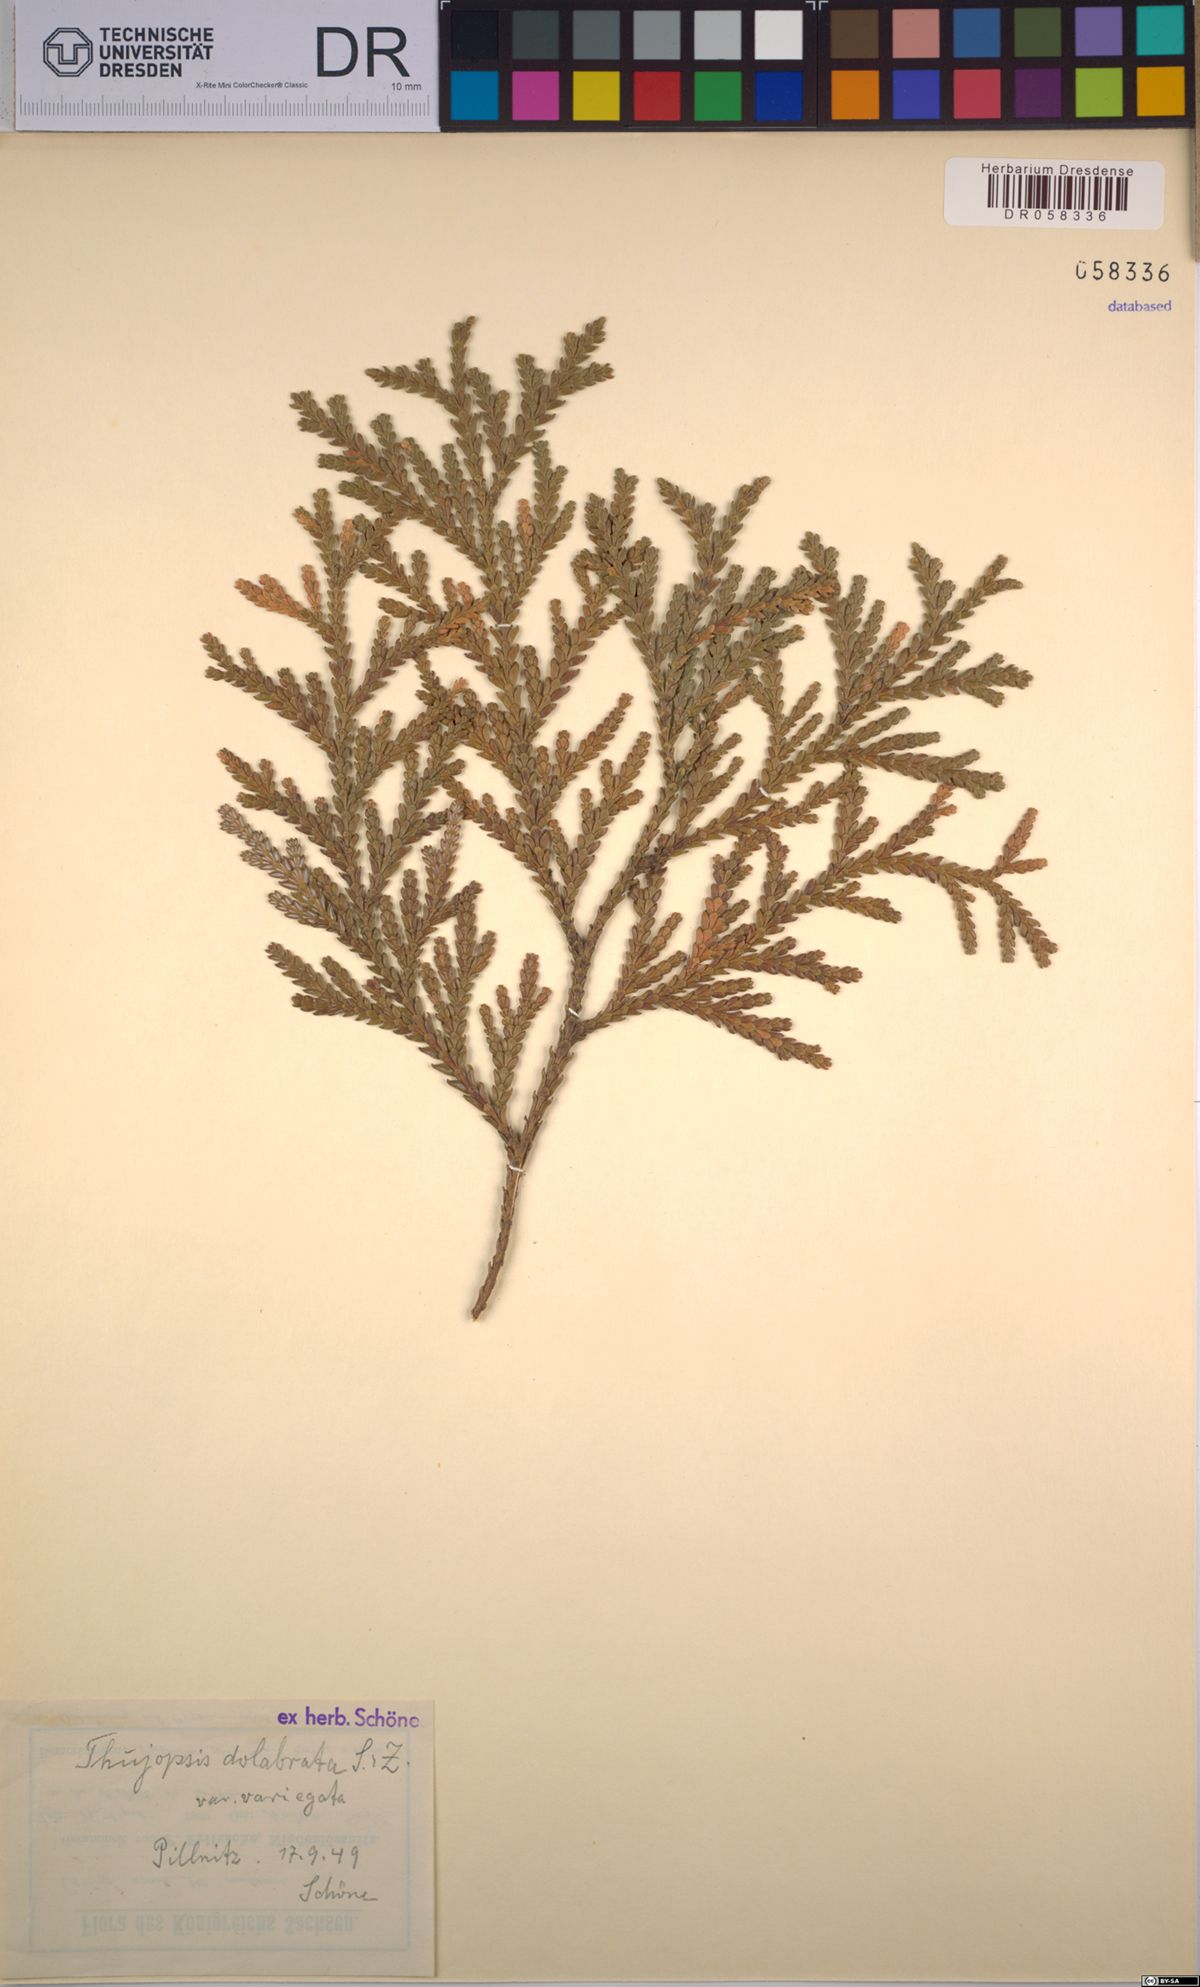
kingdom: Plantae
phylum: Tracheophyta
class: Pinopsida
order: Pinales
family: Cupressaceae
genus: Thujopsis
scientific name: Thujopsis dolabrata
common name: Hiba
